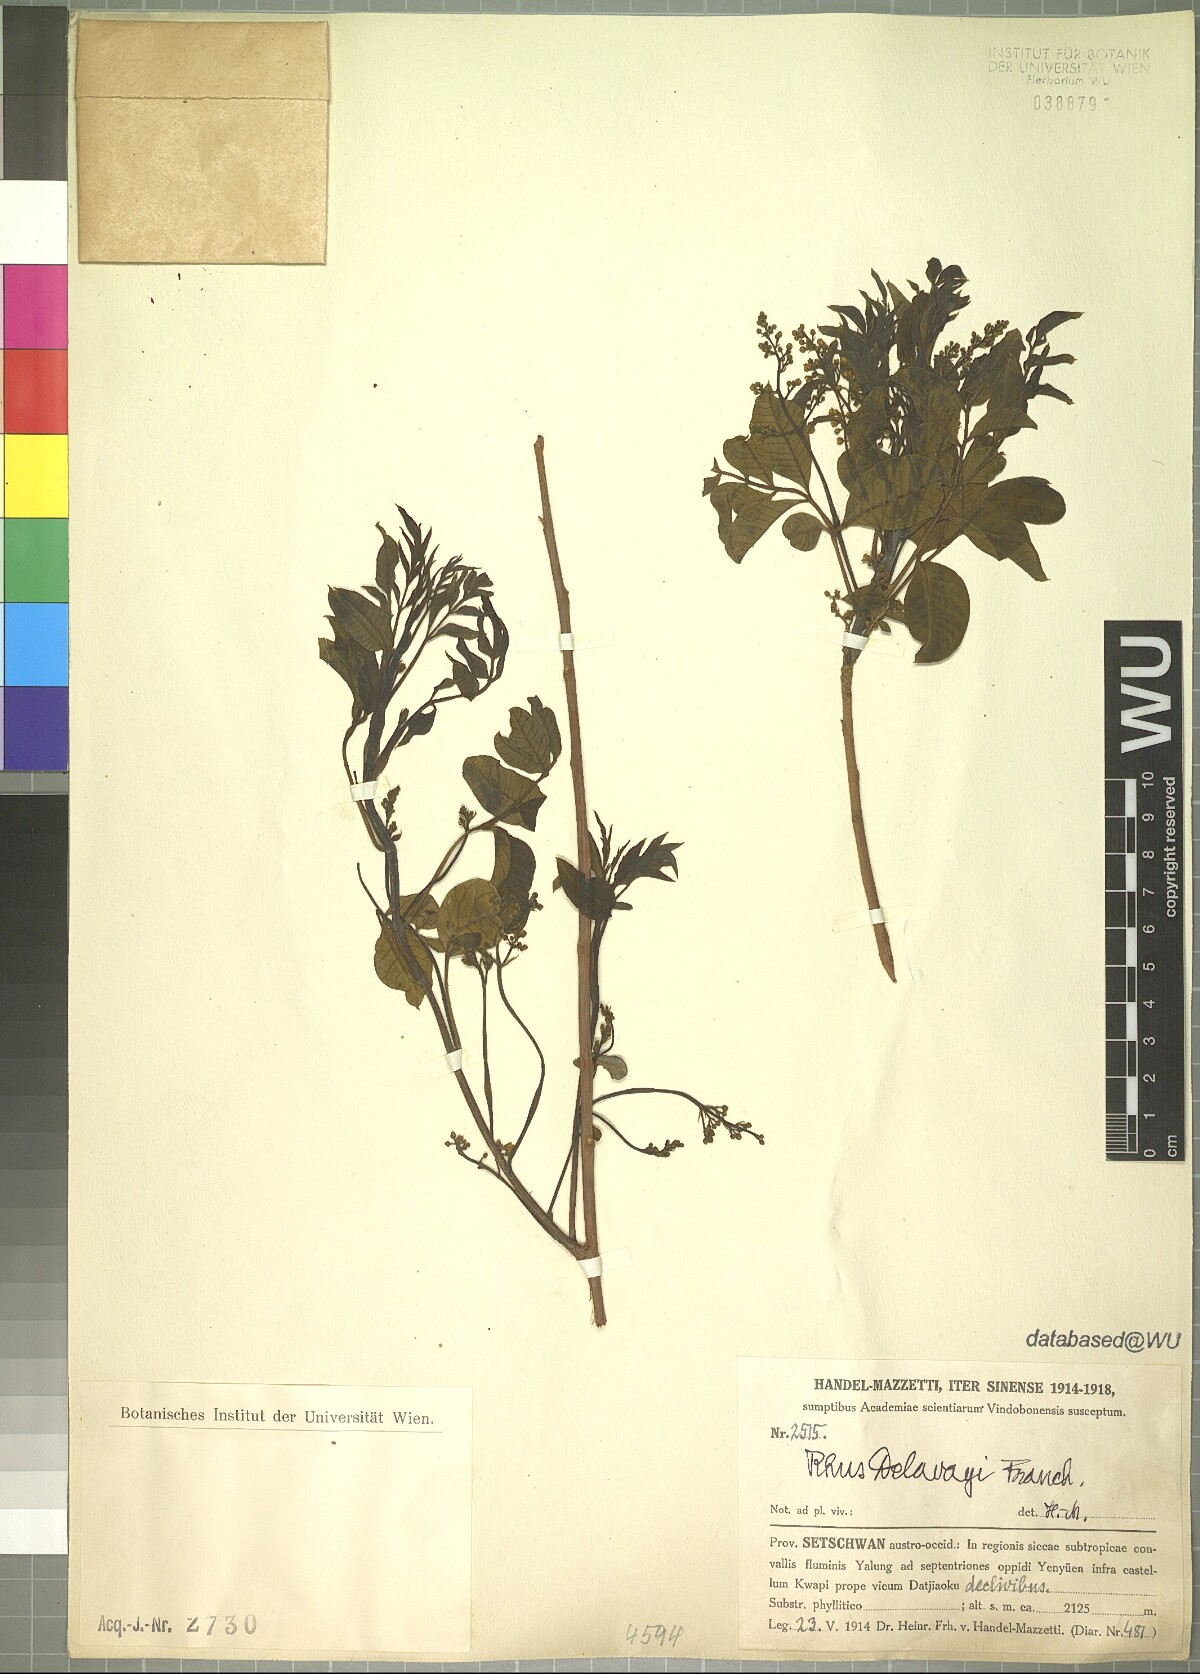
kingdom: Plantae
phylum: Tracheophyta
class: Magnoliopsida
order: Sapindales
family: Anacardiaceae
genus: Toxicodendron
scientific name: Toxicodendron delavayi
